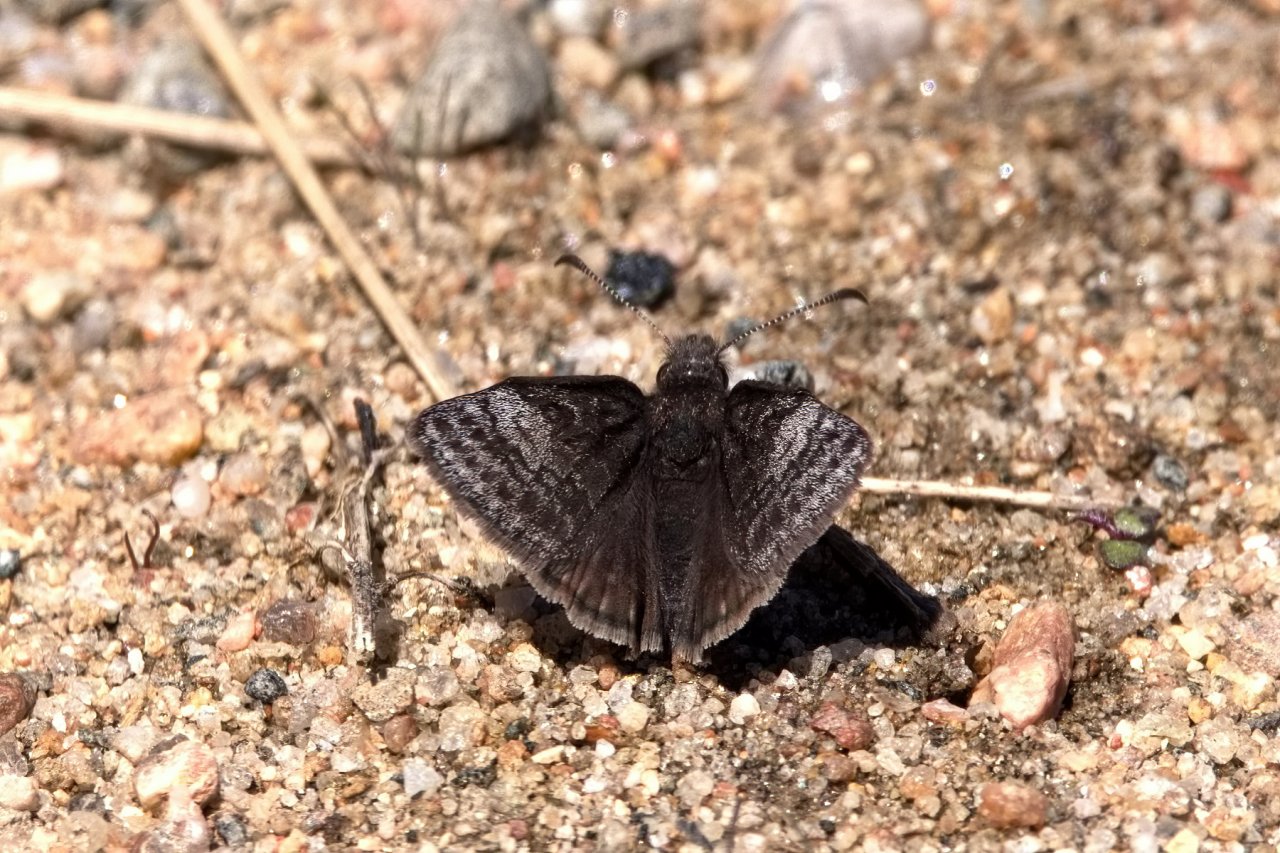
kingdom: Animalia
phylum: Arthropoda
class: Insecta
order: Lepidoptera
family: Hesperiidae
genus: Erynnis
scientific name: Erynnis icelus
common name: Dreamy Duskywing
